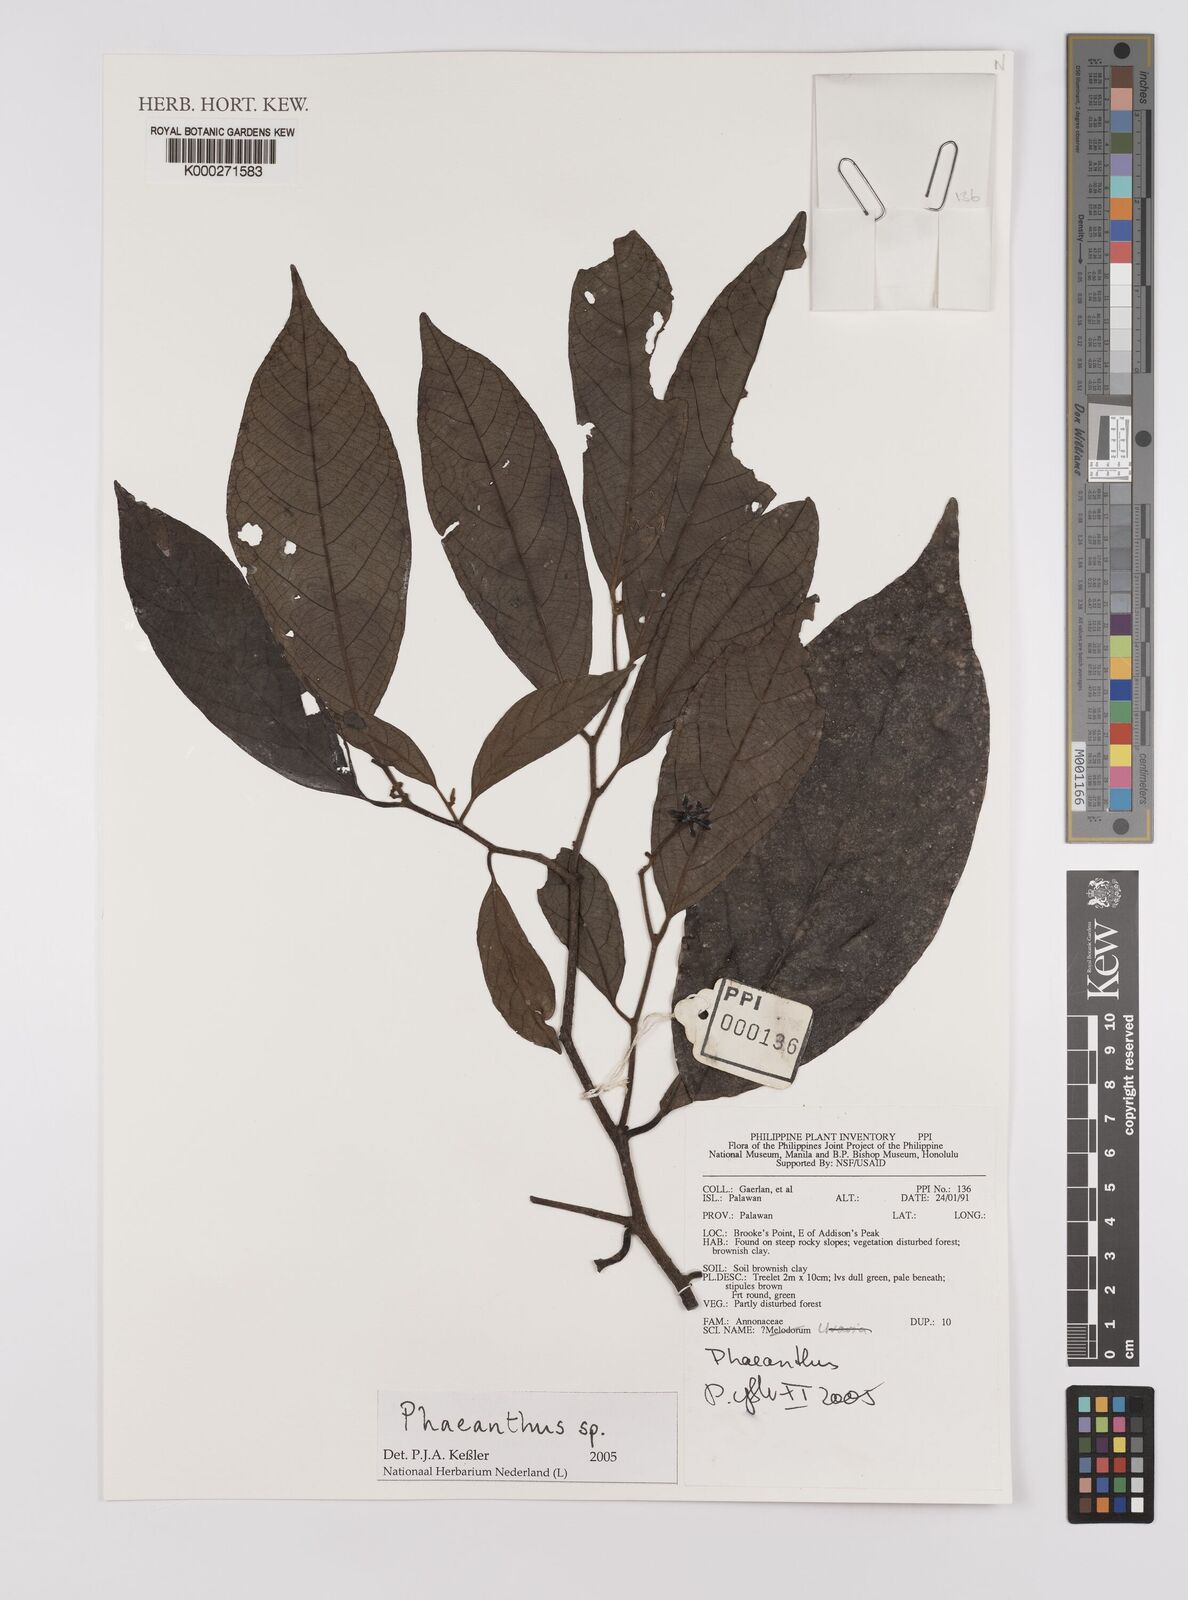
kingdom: Plantae
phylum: Tracheophyta
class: Magnoliopsida
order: Magnoliales
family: Annonaceae
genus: Phaeanthus
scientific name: Phaeanthus
